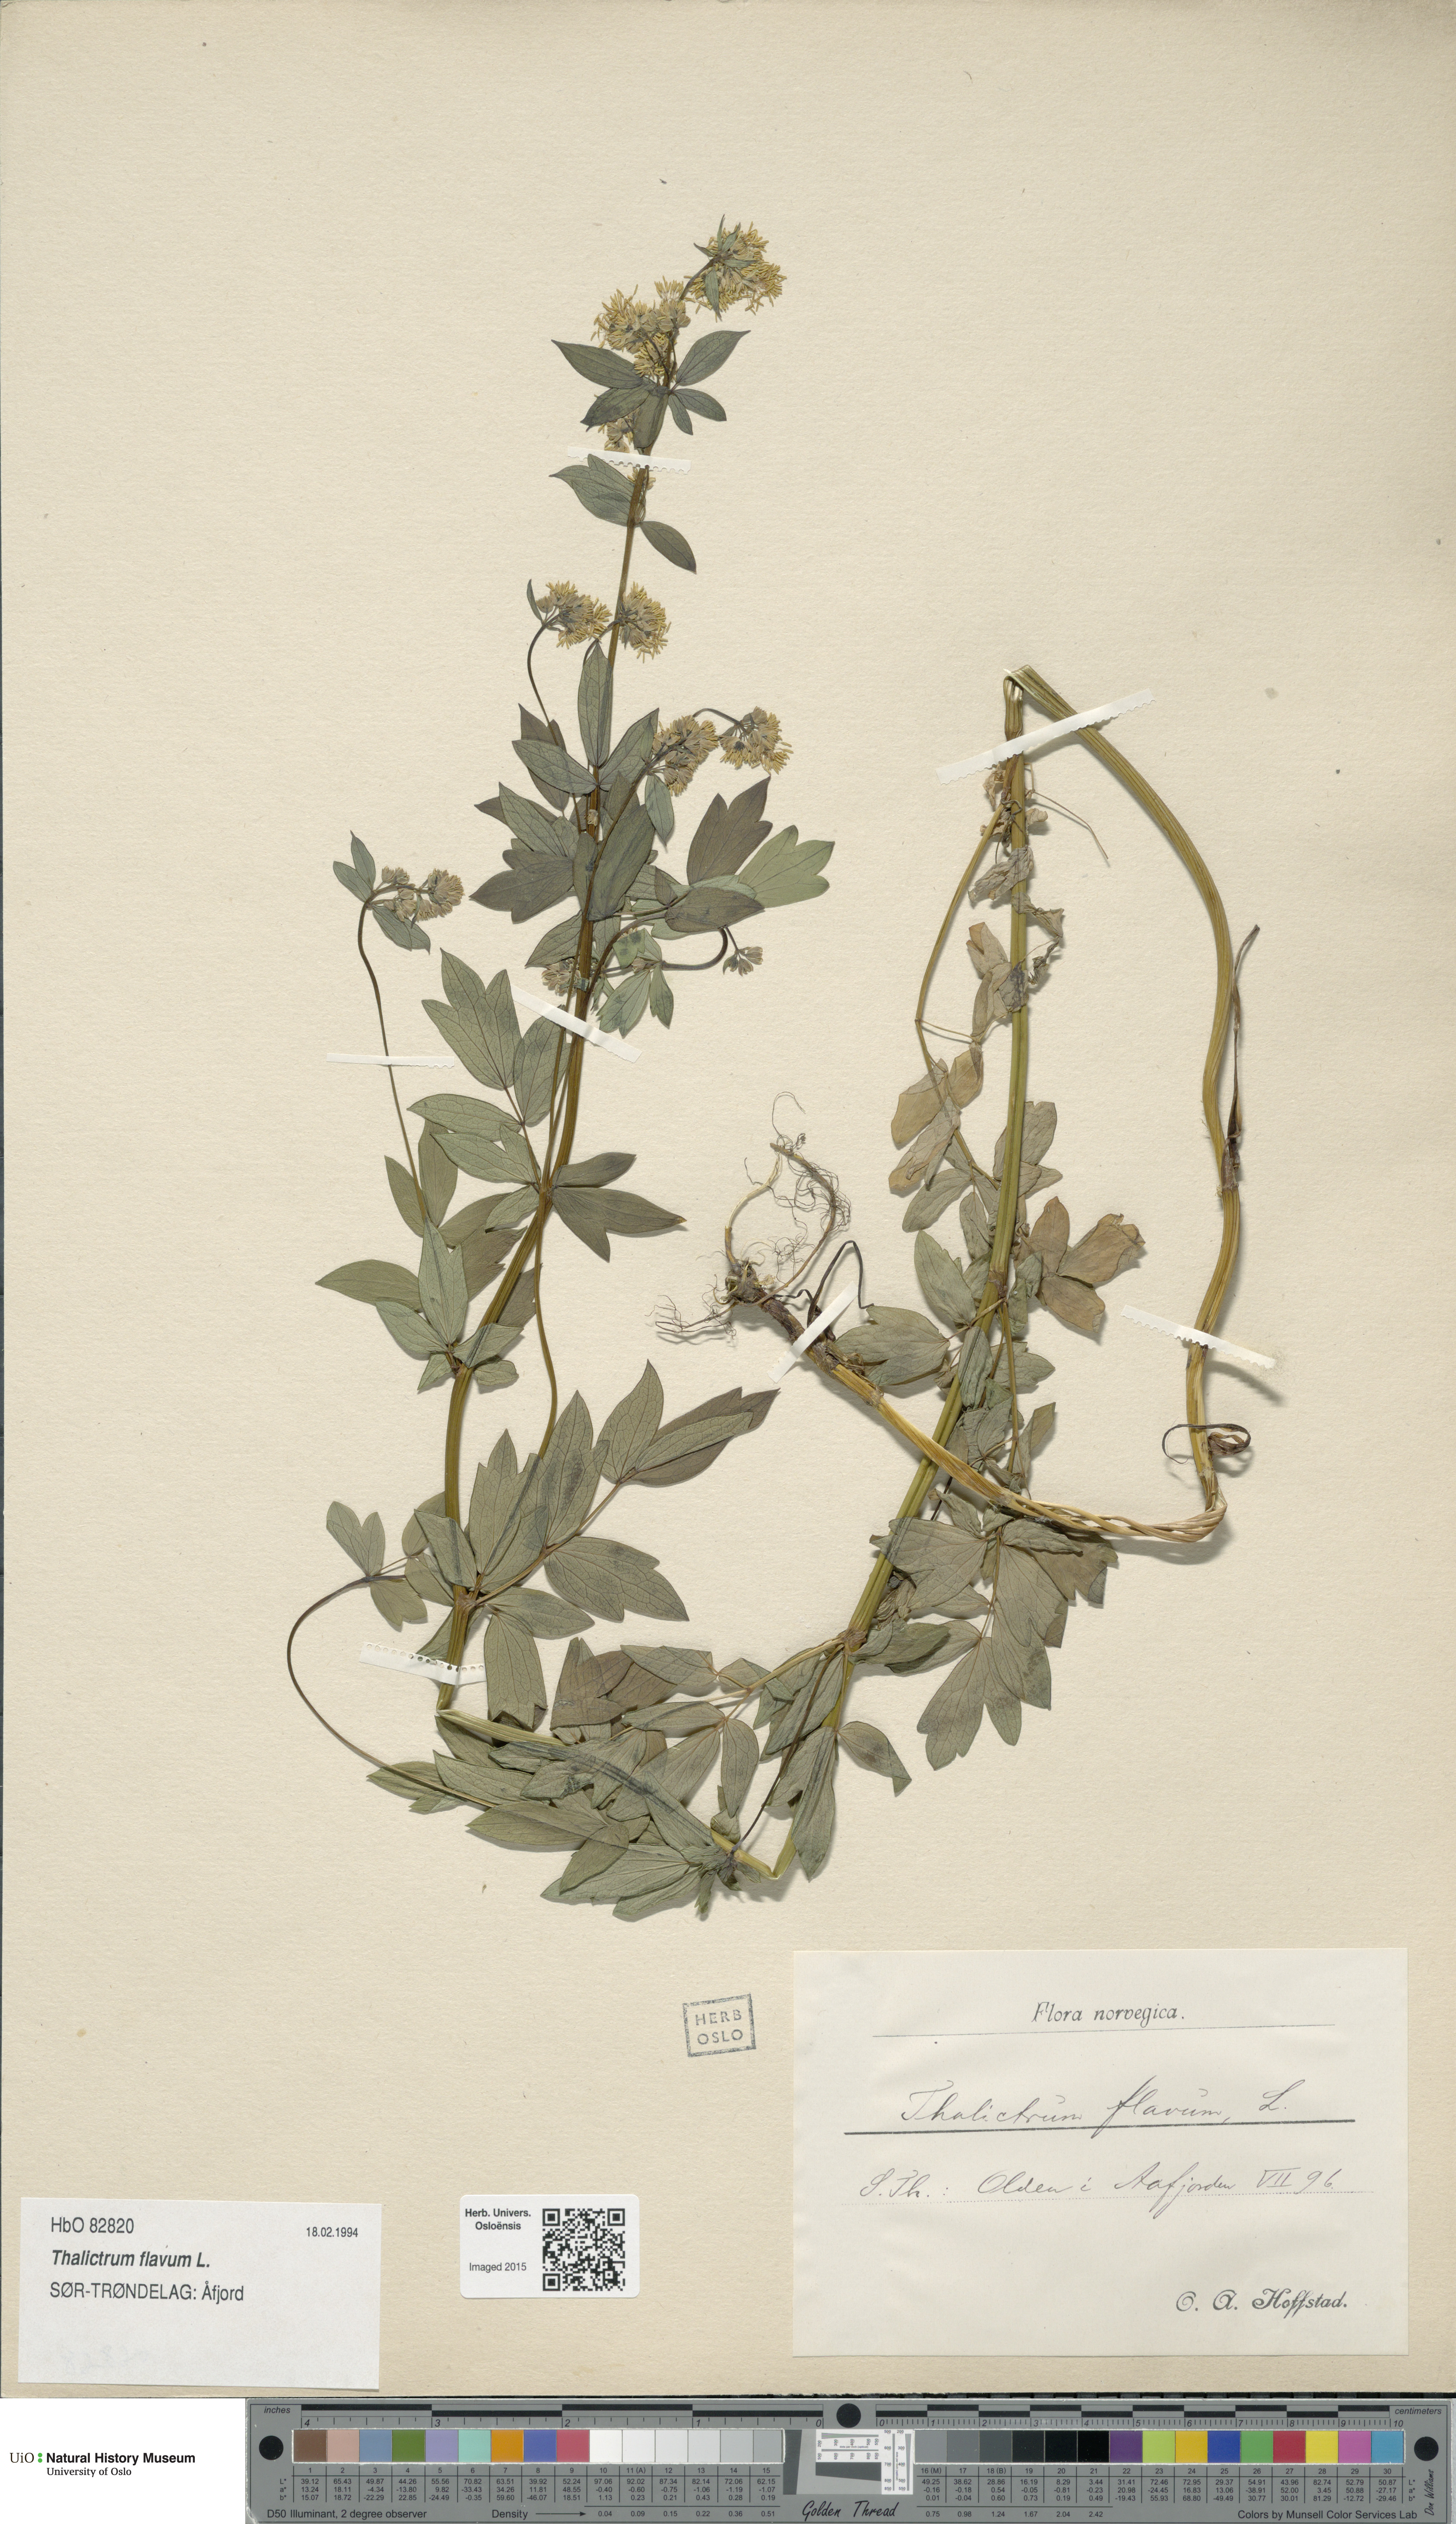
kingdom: Plantae
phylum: Tracheophyta
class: Magnoliopsida
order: Ranunculales
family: Ranunculaceae
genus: Thalictrum
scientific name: Thalictrum flavum
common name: Common meadow-rue
